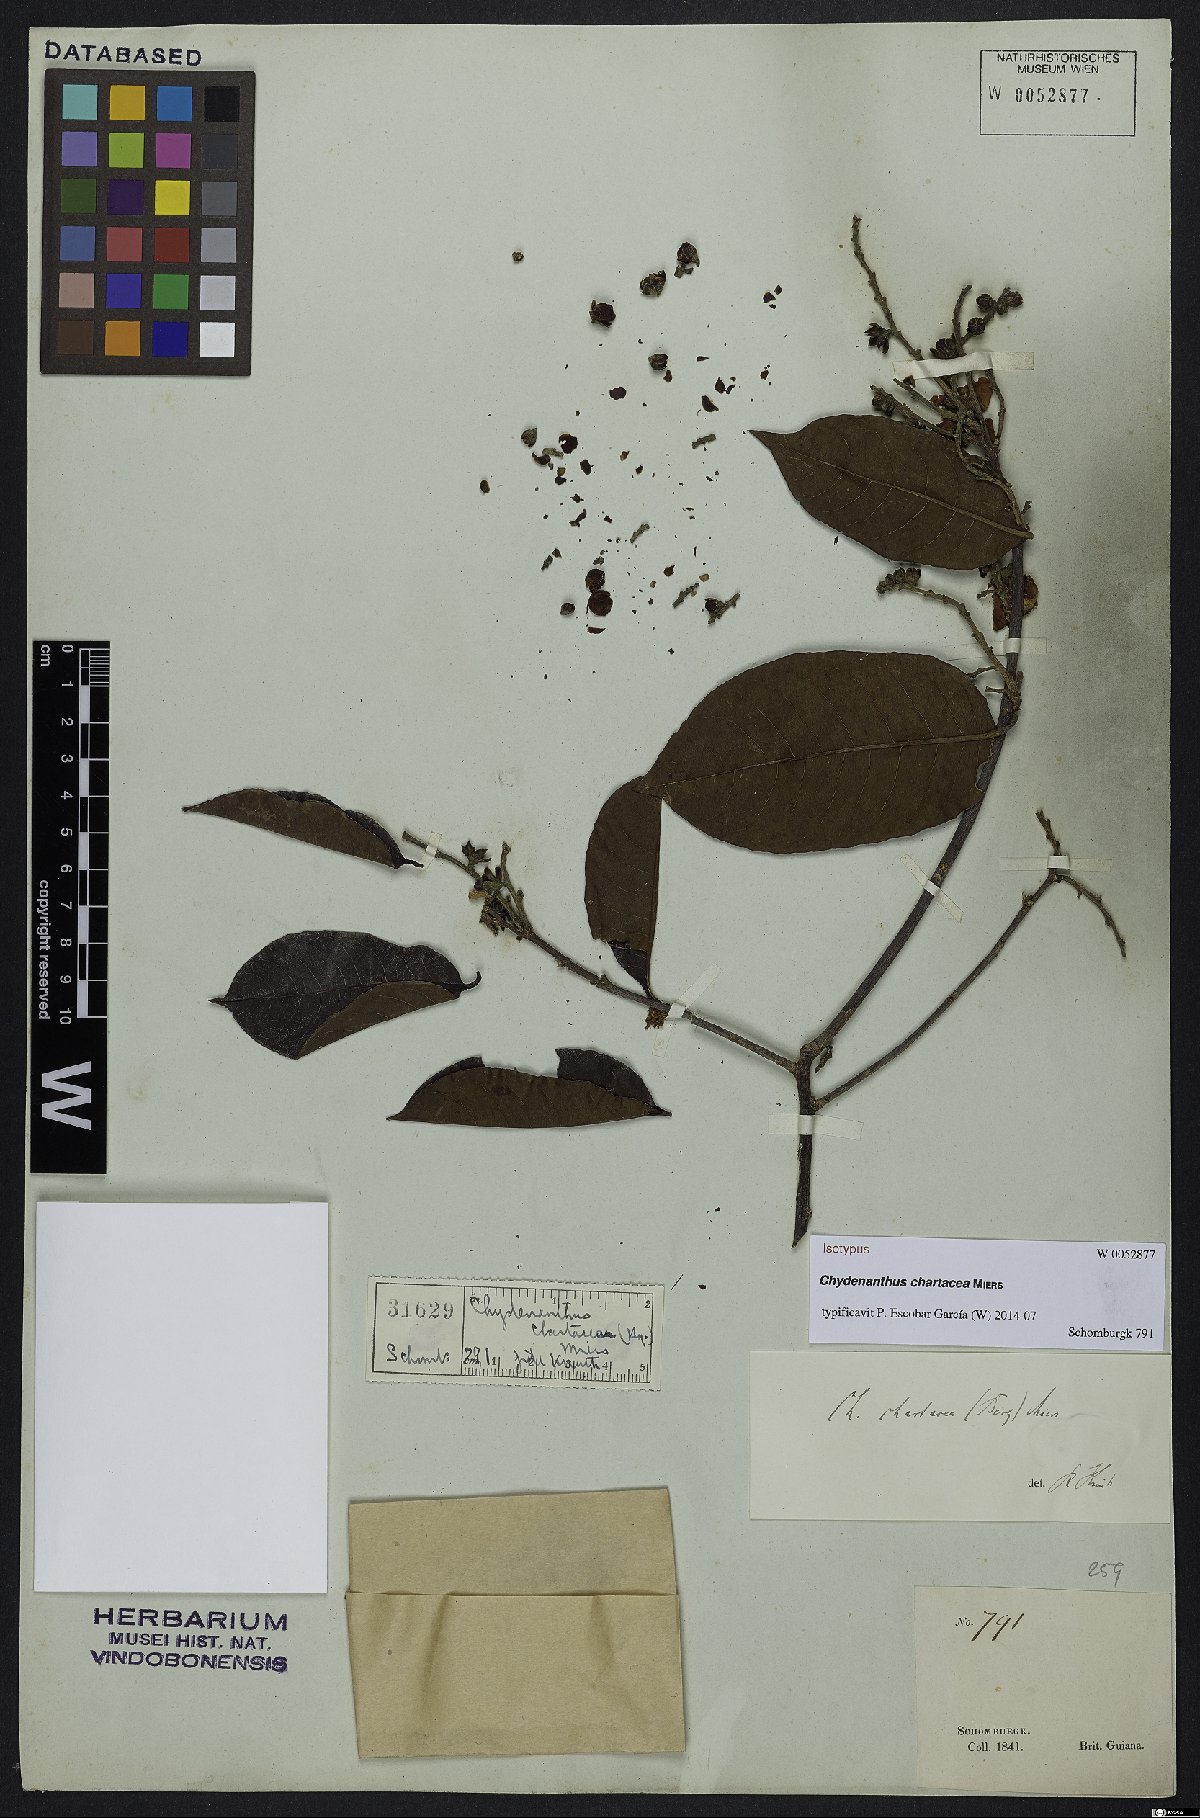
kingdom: Plantae
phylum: Tracheophyta
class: Magnoliopsida
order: Ericales
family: Lecythidaceae
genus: Chydenanthus
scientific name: Chydenanthus chartacea
